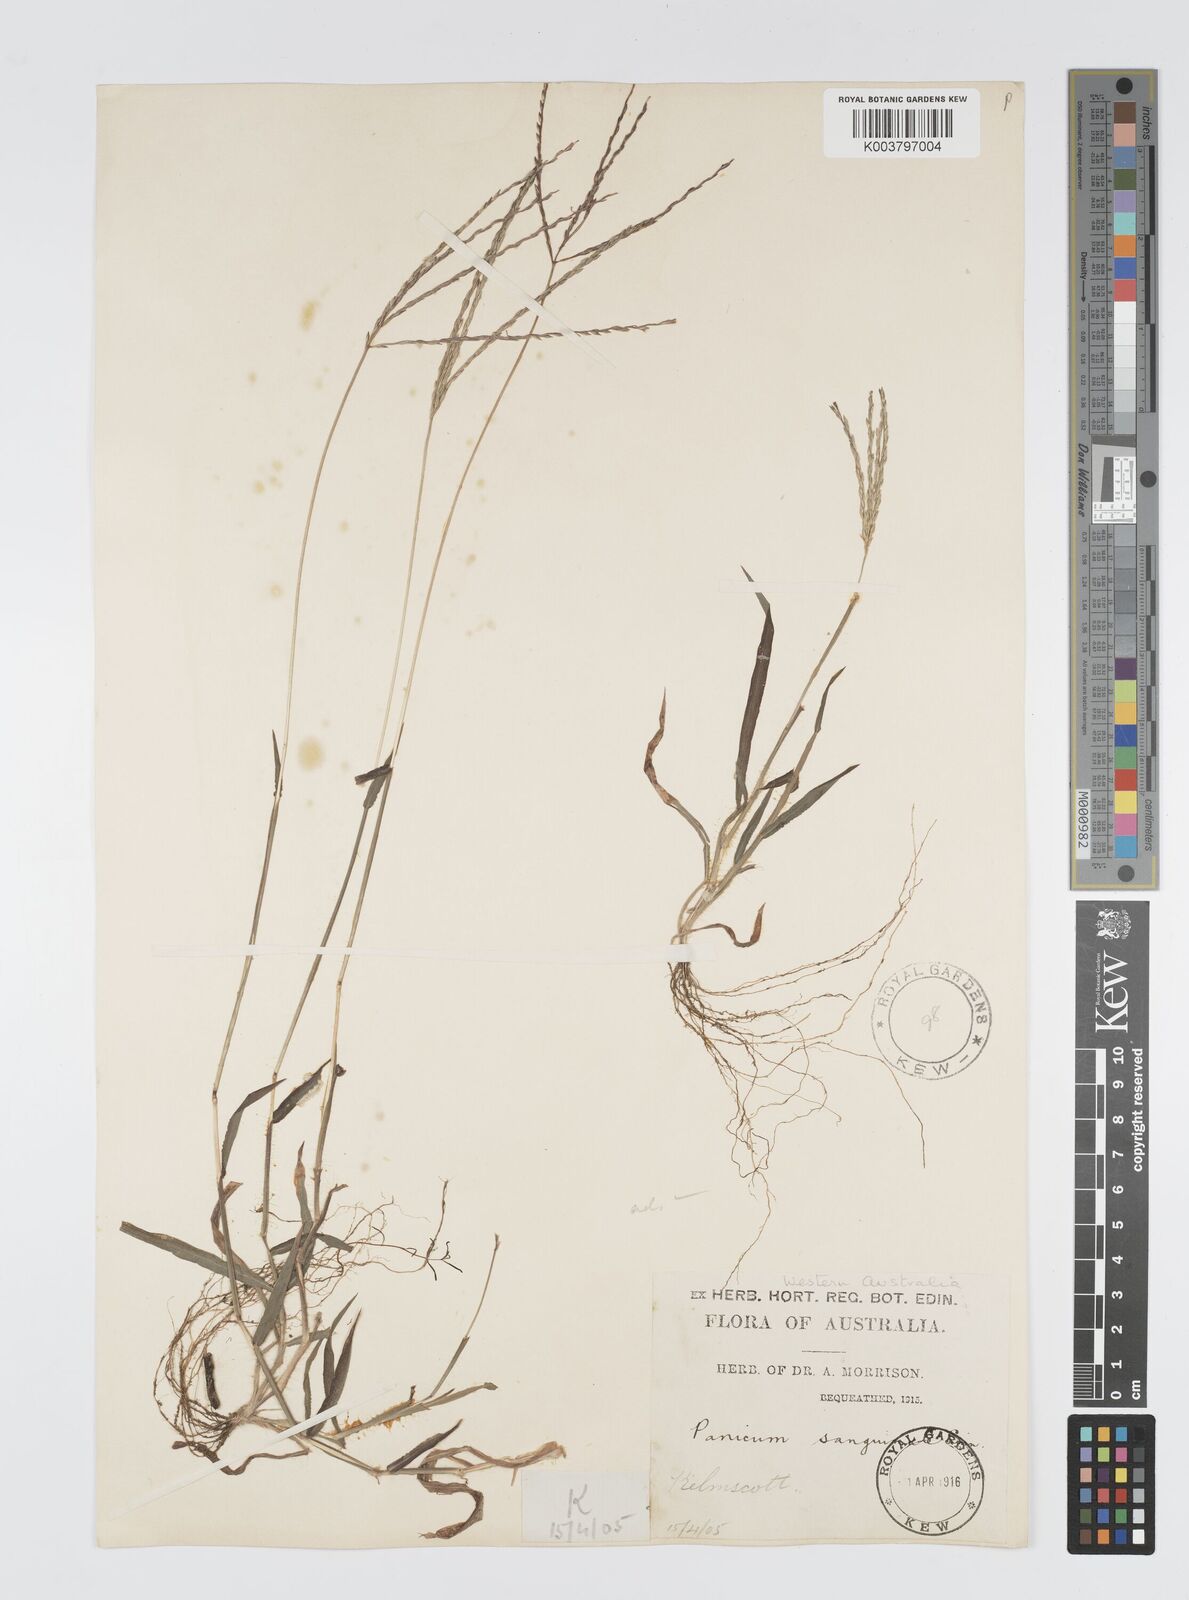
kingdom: Plantae
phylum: Tracheophyta
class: Liliopsida
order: Poales
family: Poaceae
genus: Digitaria
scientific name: Digitaria ciliaris
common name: Tropical finger-grass
